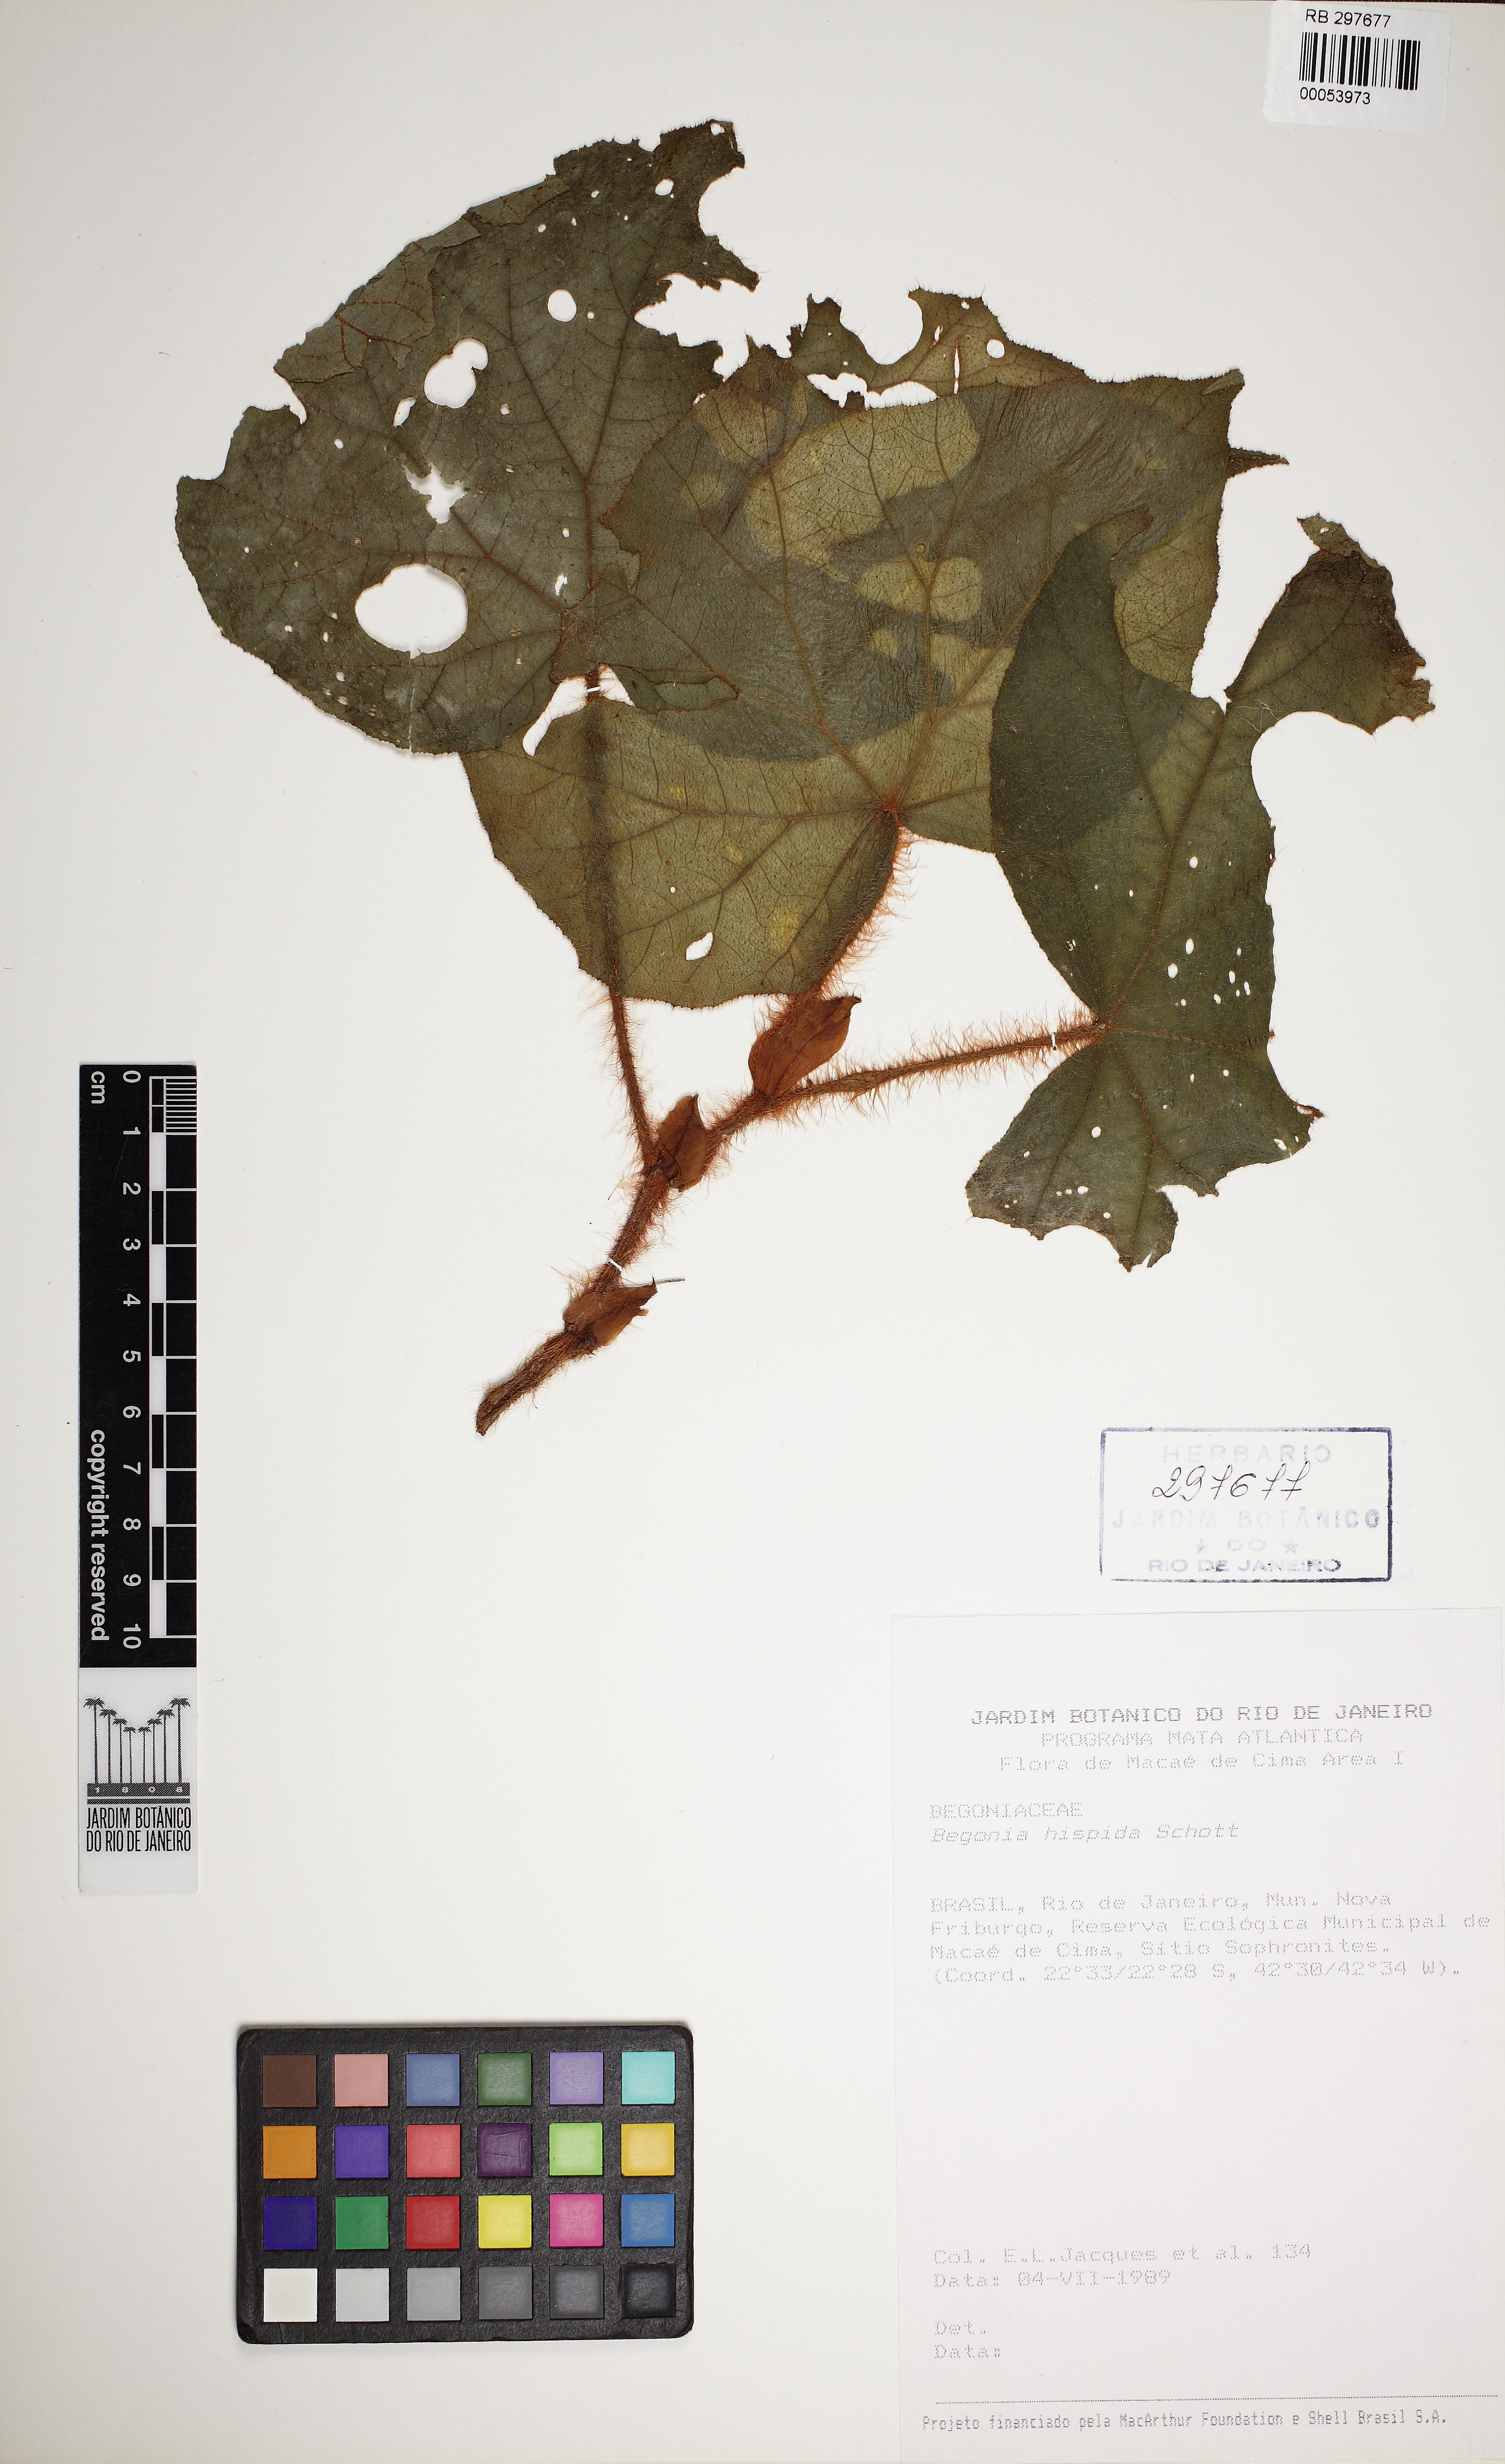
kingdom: Plantae
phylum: Tracheophyta
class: Magnoliopsida
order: Cucurbitales
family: Begoniaceae
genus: Begonia
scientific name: Begonia hispida
